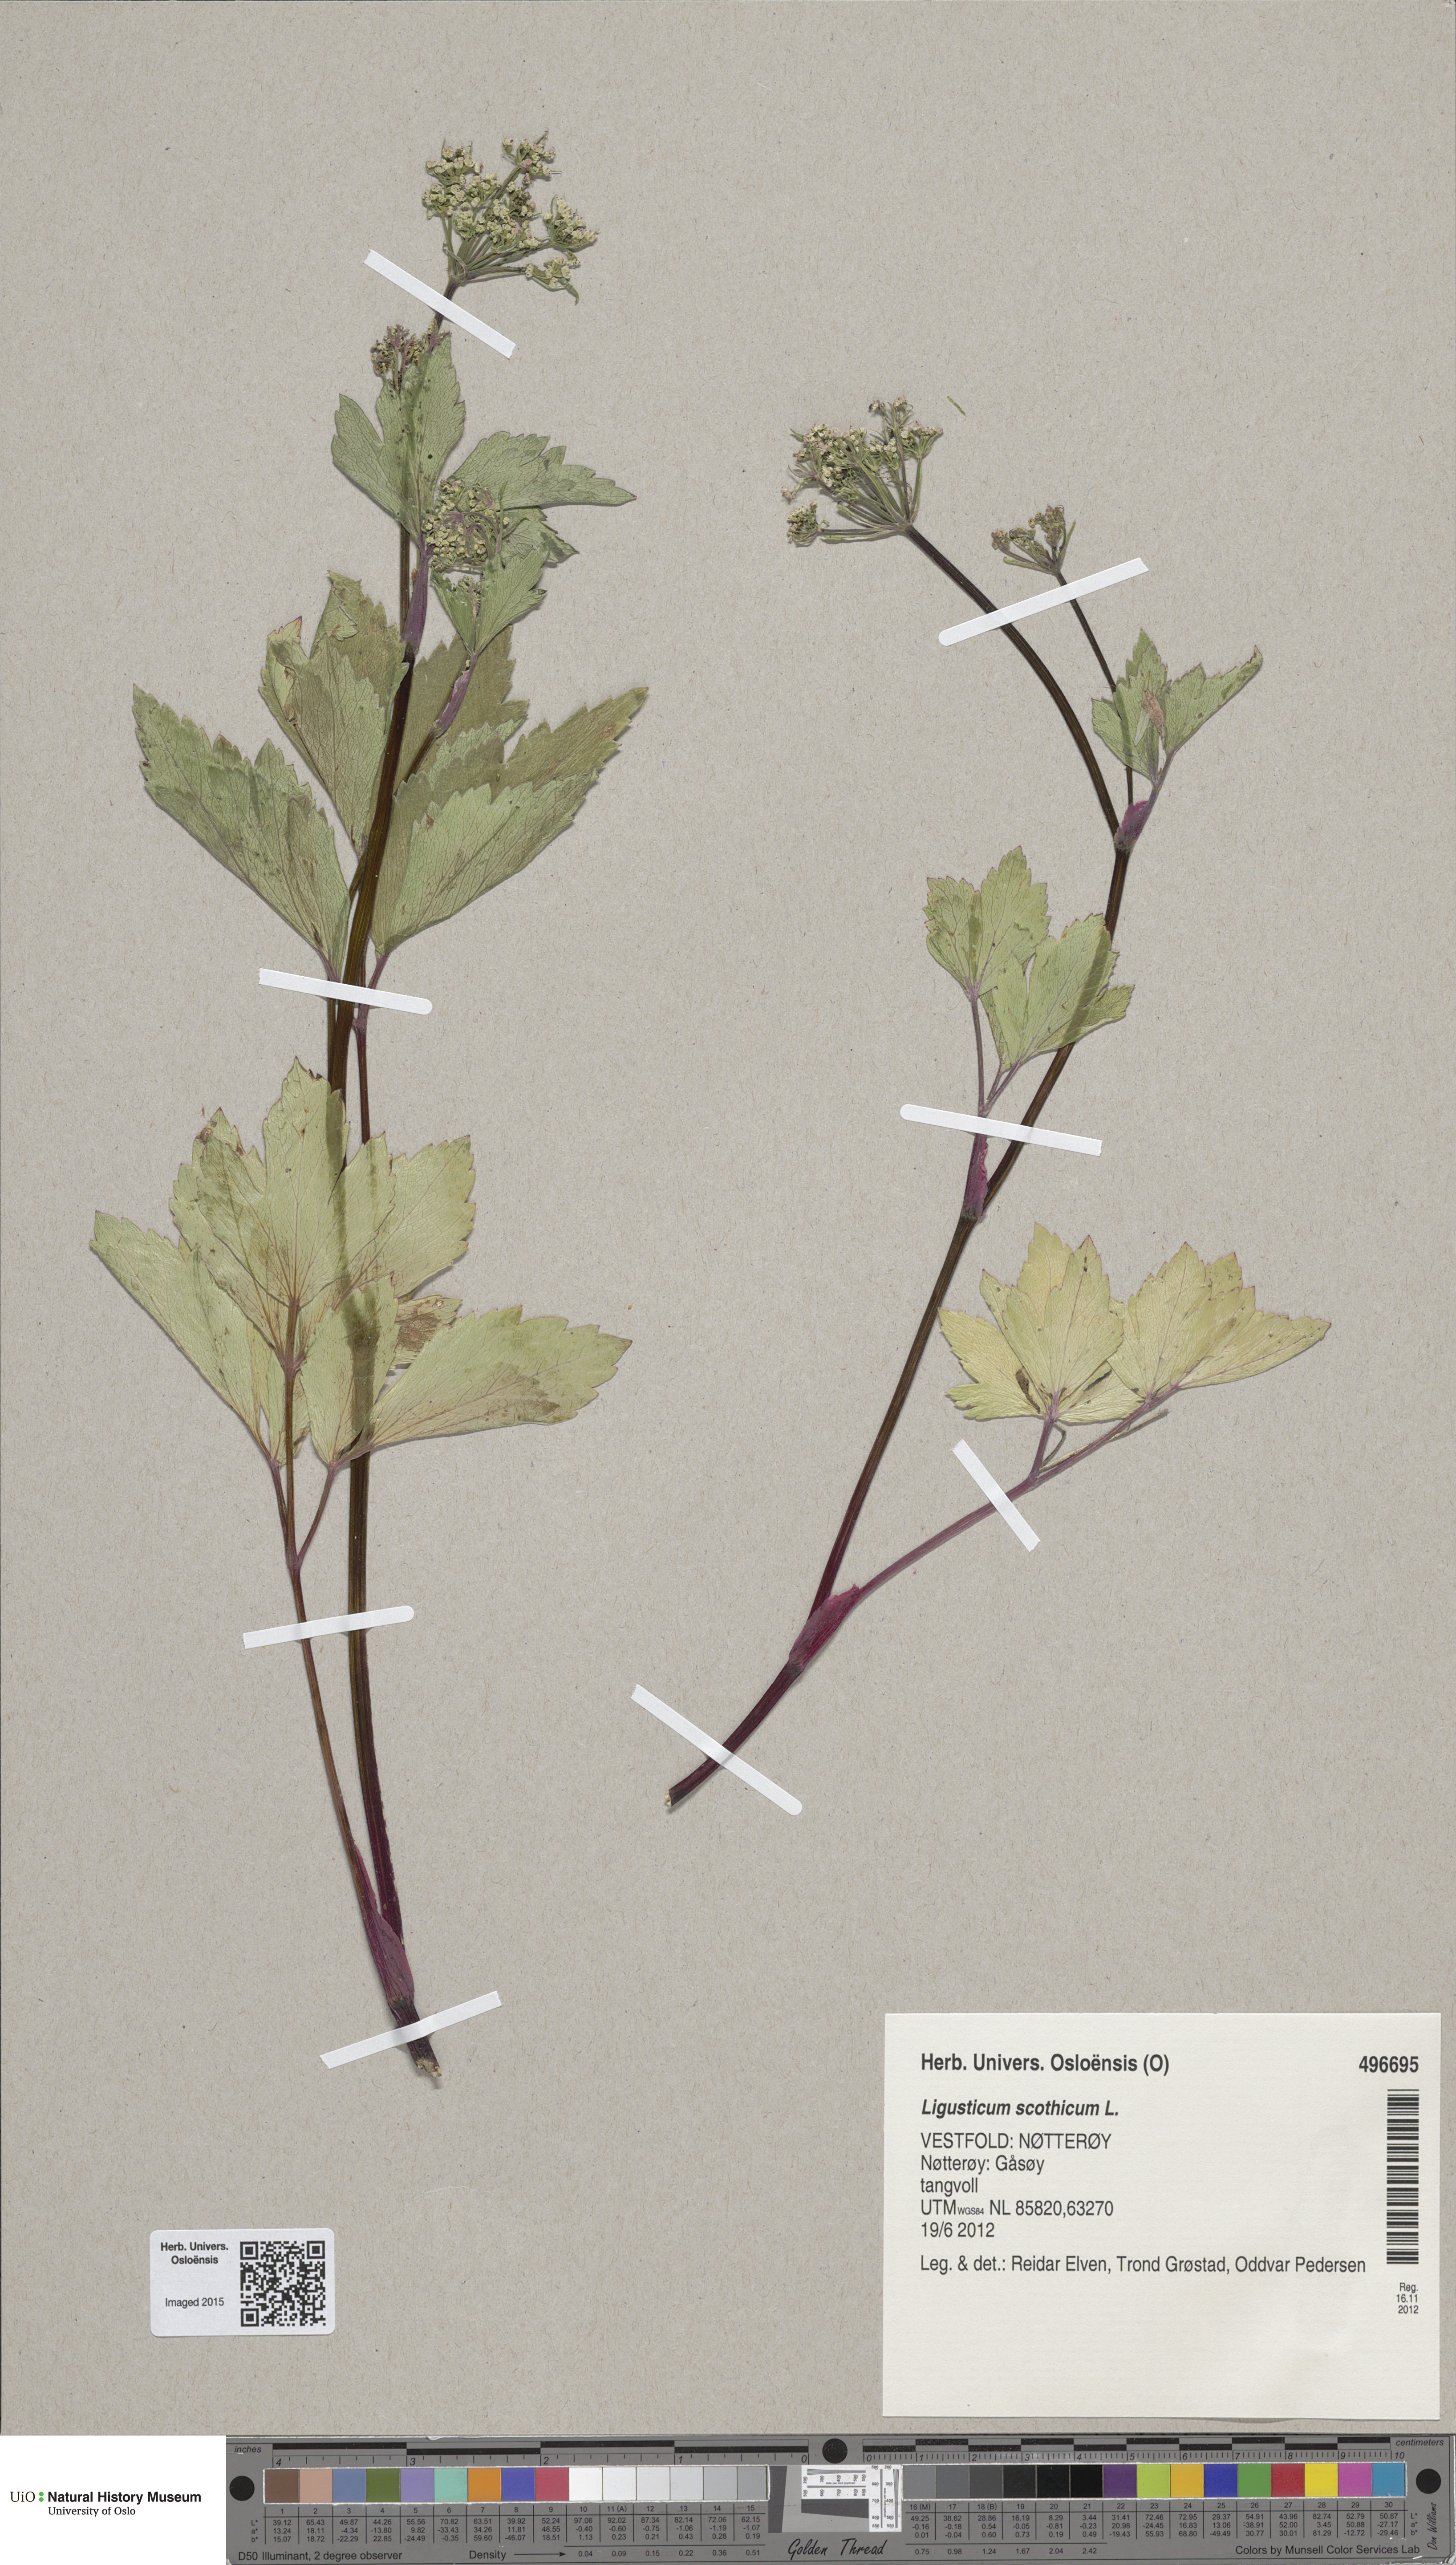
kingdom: Plantae
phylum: Tracheophyta
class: Magnoliopsida
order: Apiales
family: Apiaceae
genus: Ligusticum
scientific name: Ligusticum scothicum
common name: Beach lovage
